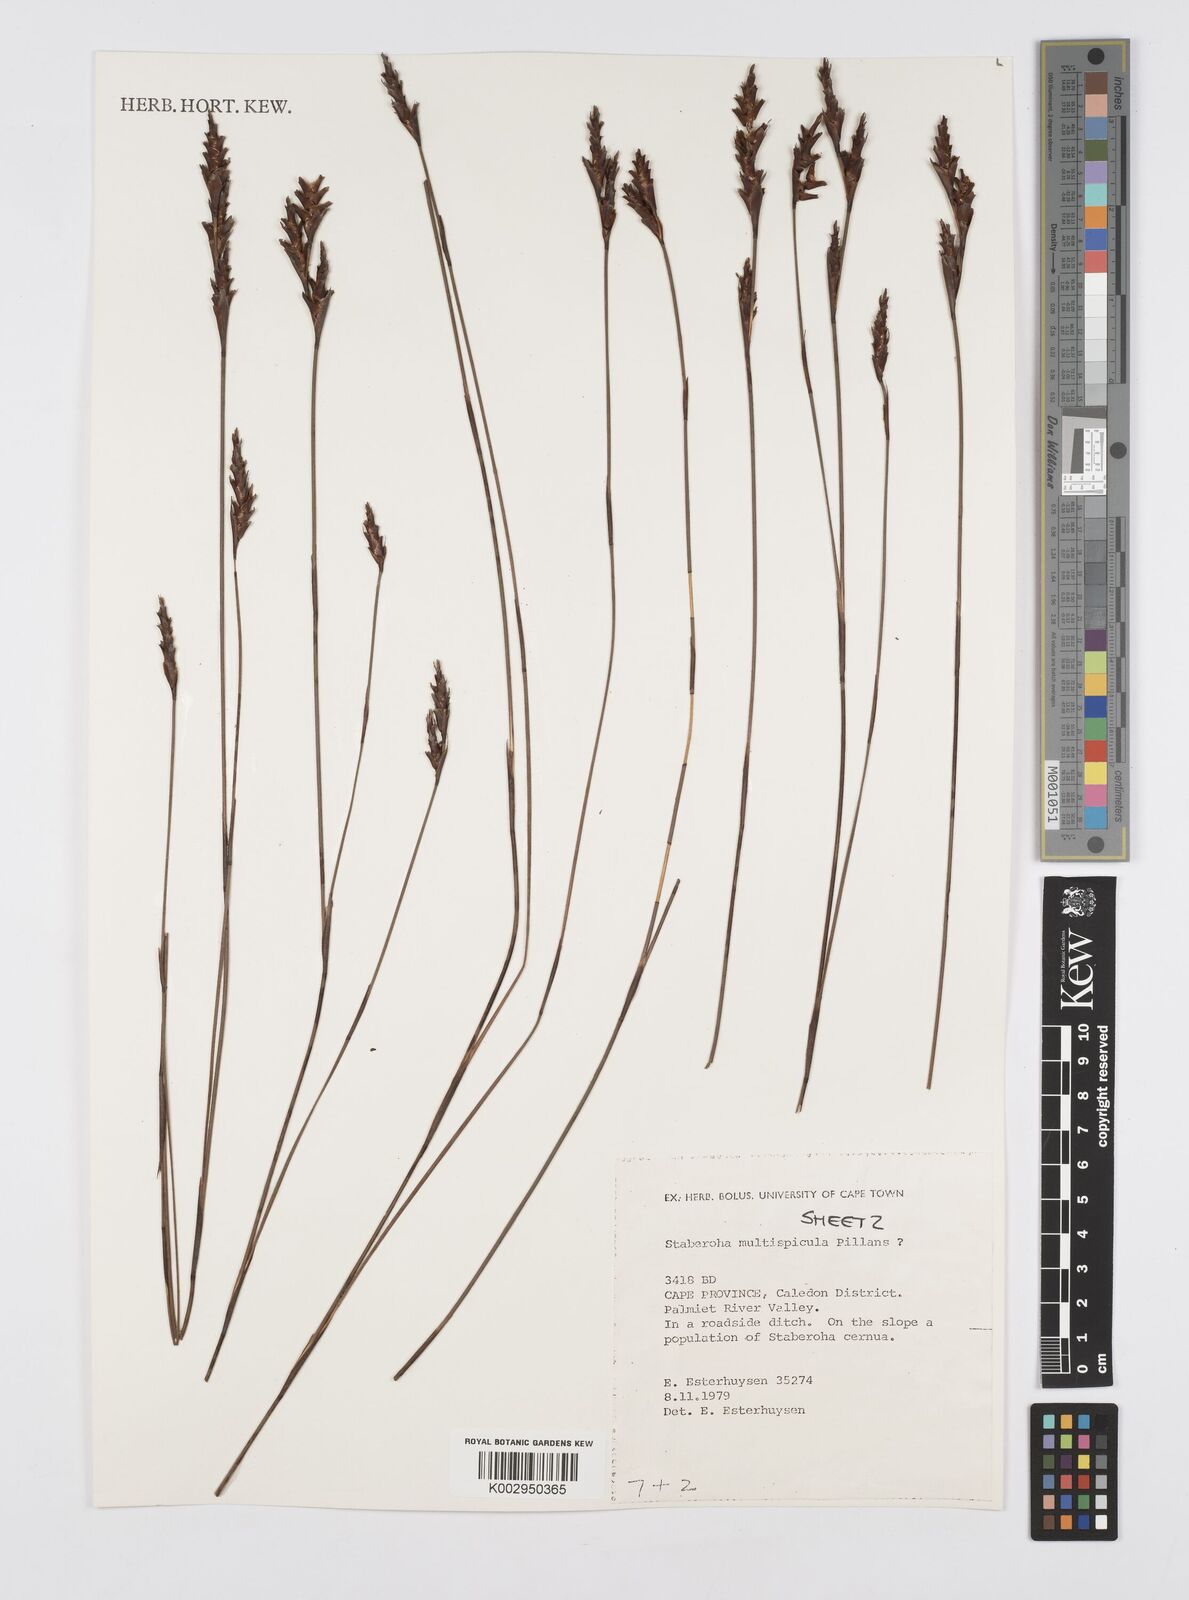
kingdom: Plantae
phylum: Tracheophyta
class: Liliopsida
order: Poales
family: Restionaceae
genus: Staberoha
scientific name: Staberoha multispicula
